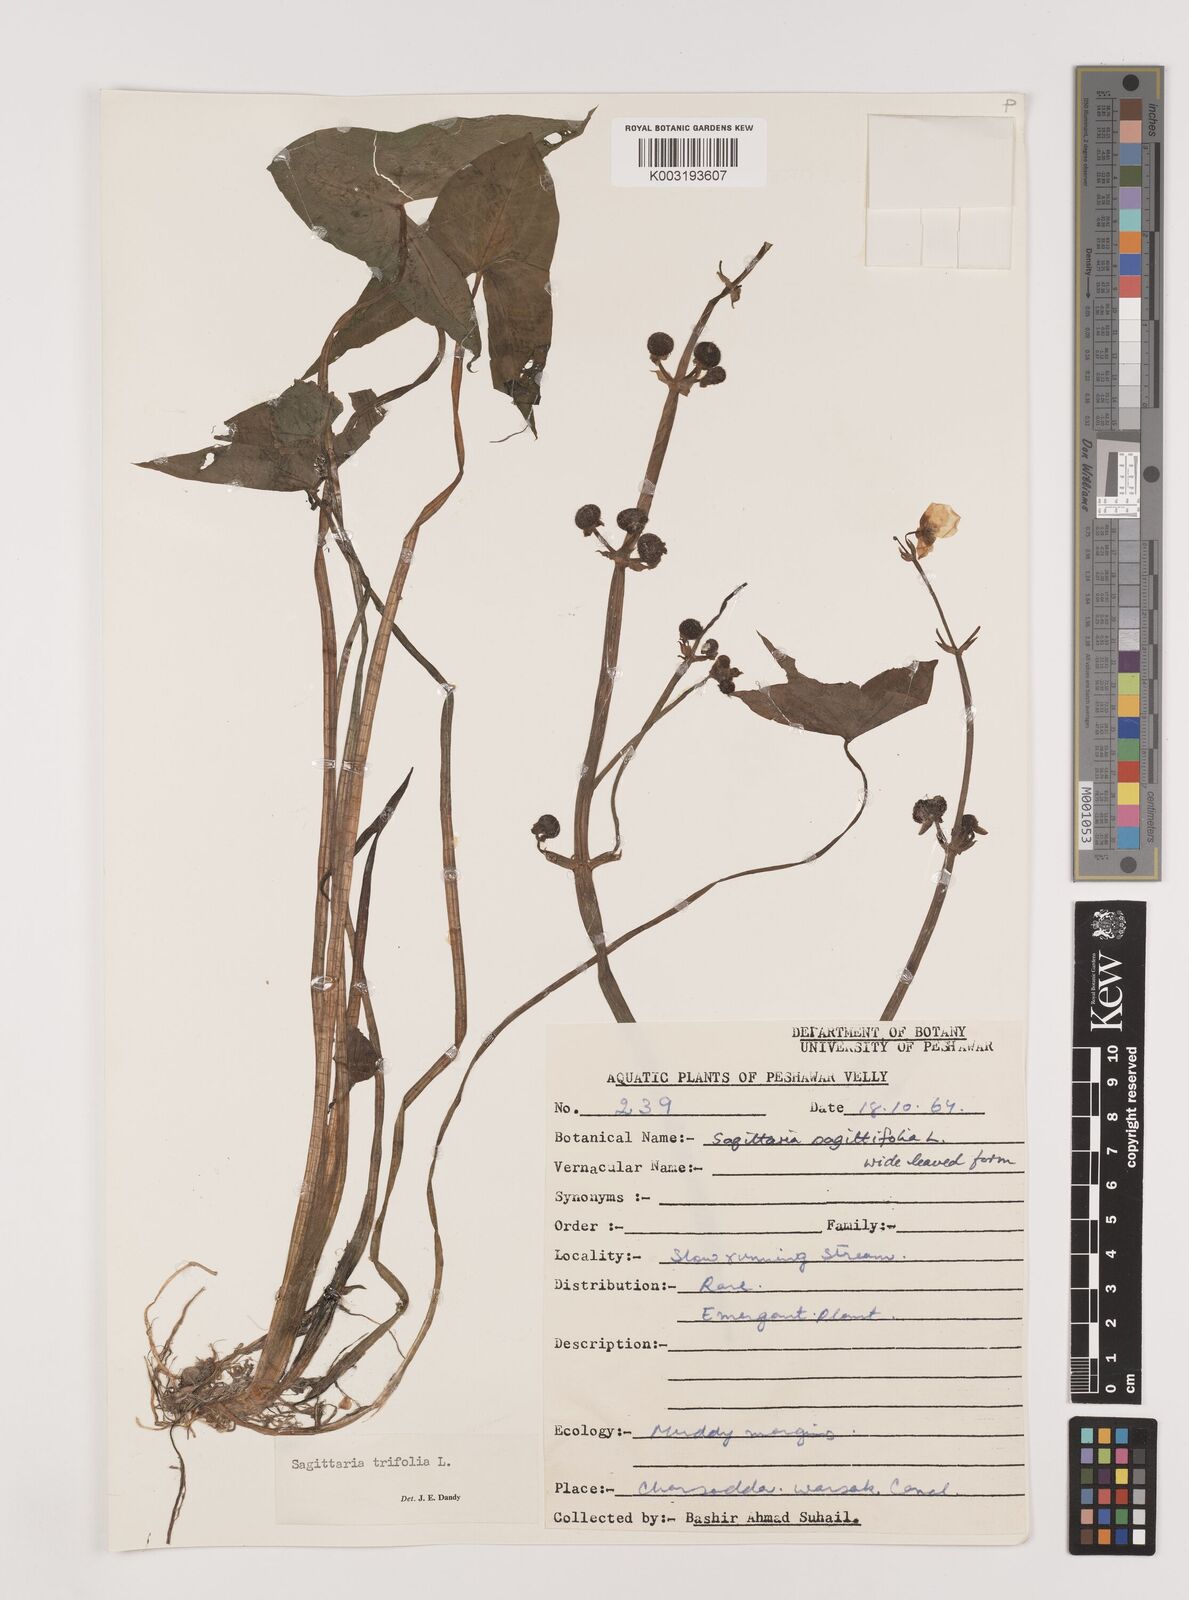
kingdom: Plantae
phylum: Tracheophyta
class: Liliopsida
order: Alismatales
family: Alismataceae
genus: Sagittaria
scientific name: Sagittaria sagittifolia
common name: Arrowhead
